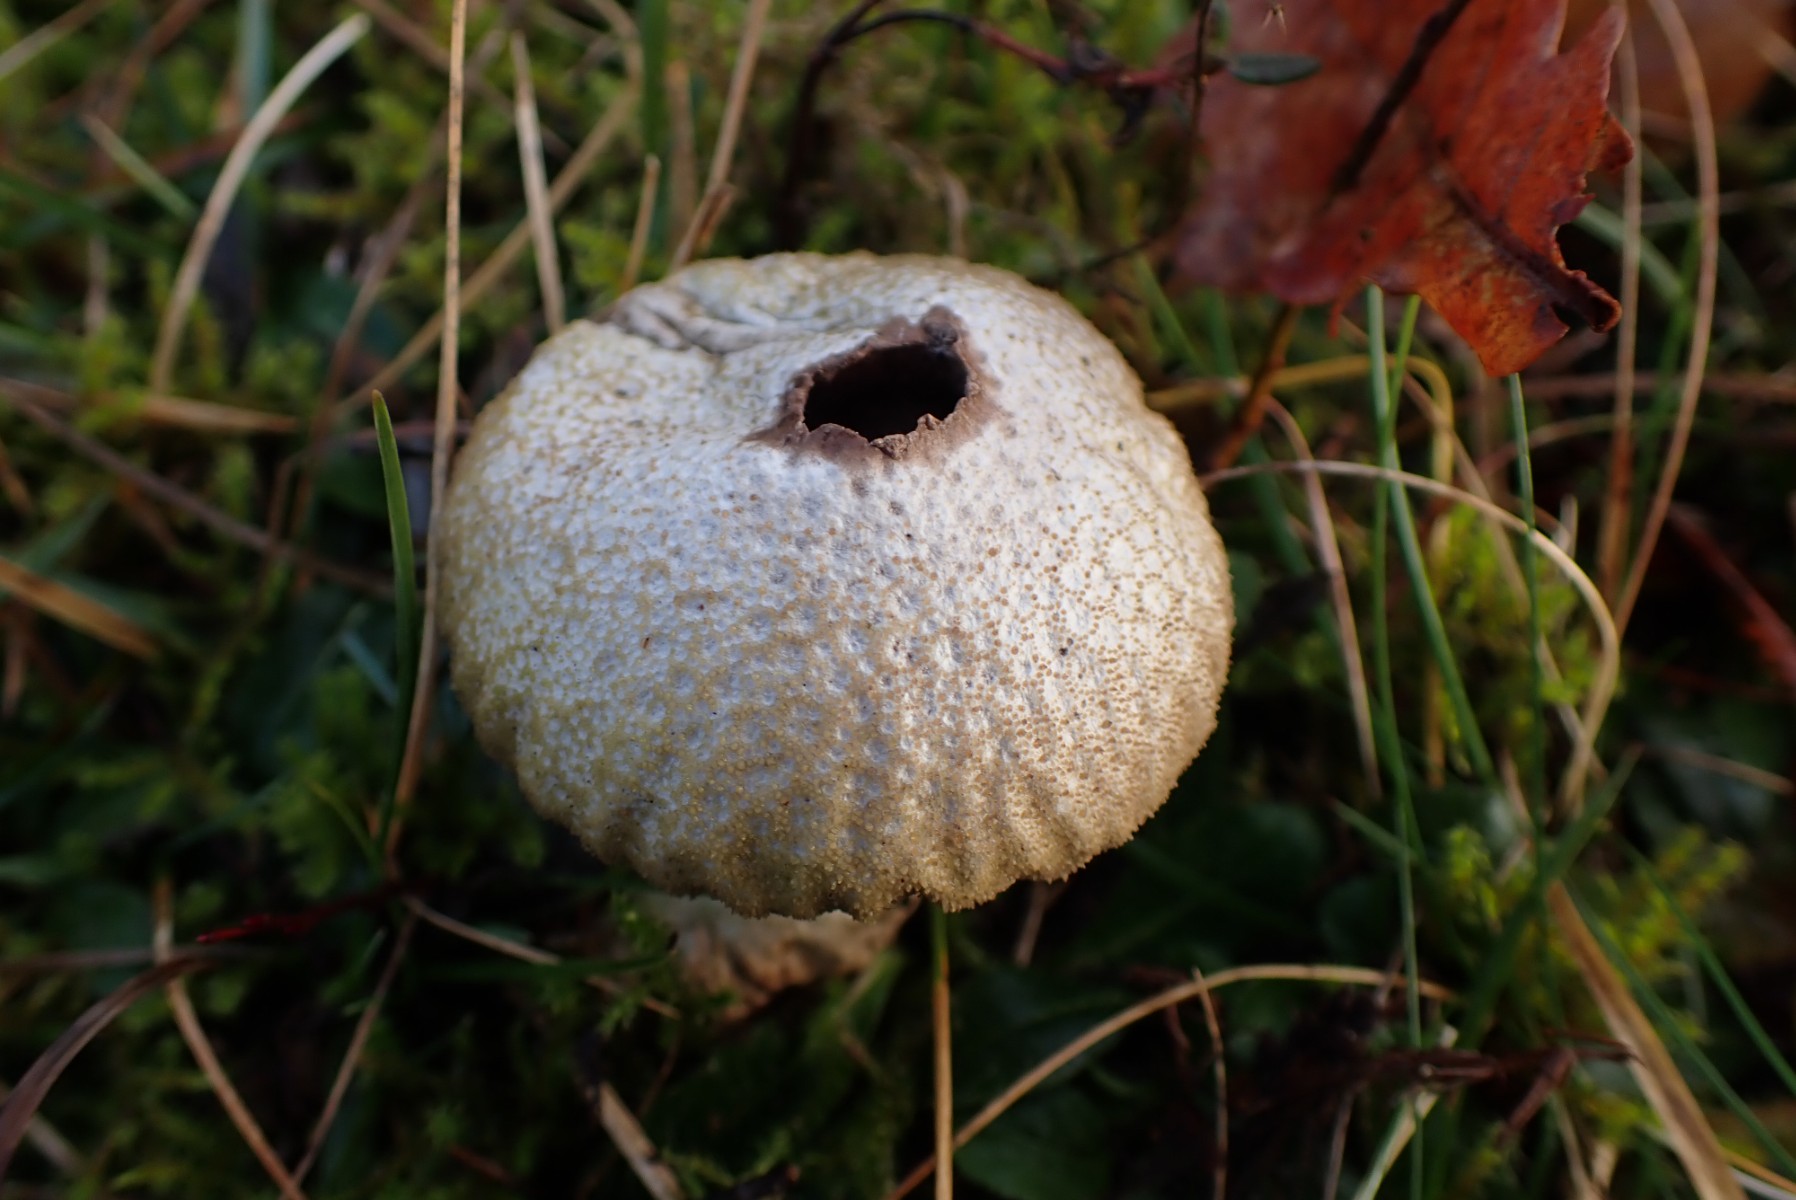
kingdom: Fungi
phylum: Basidiomycota
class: Agaricomycetes
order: Agaricales
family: Lycoperdaceae
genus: Lycoperdon
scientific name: Lycoperdon perlatum
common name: krystal-støvbold
